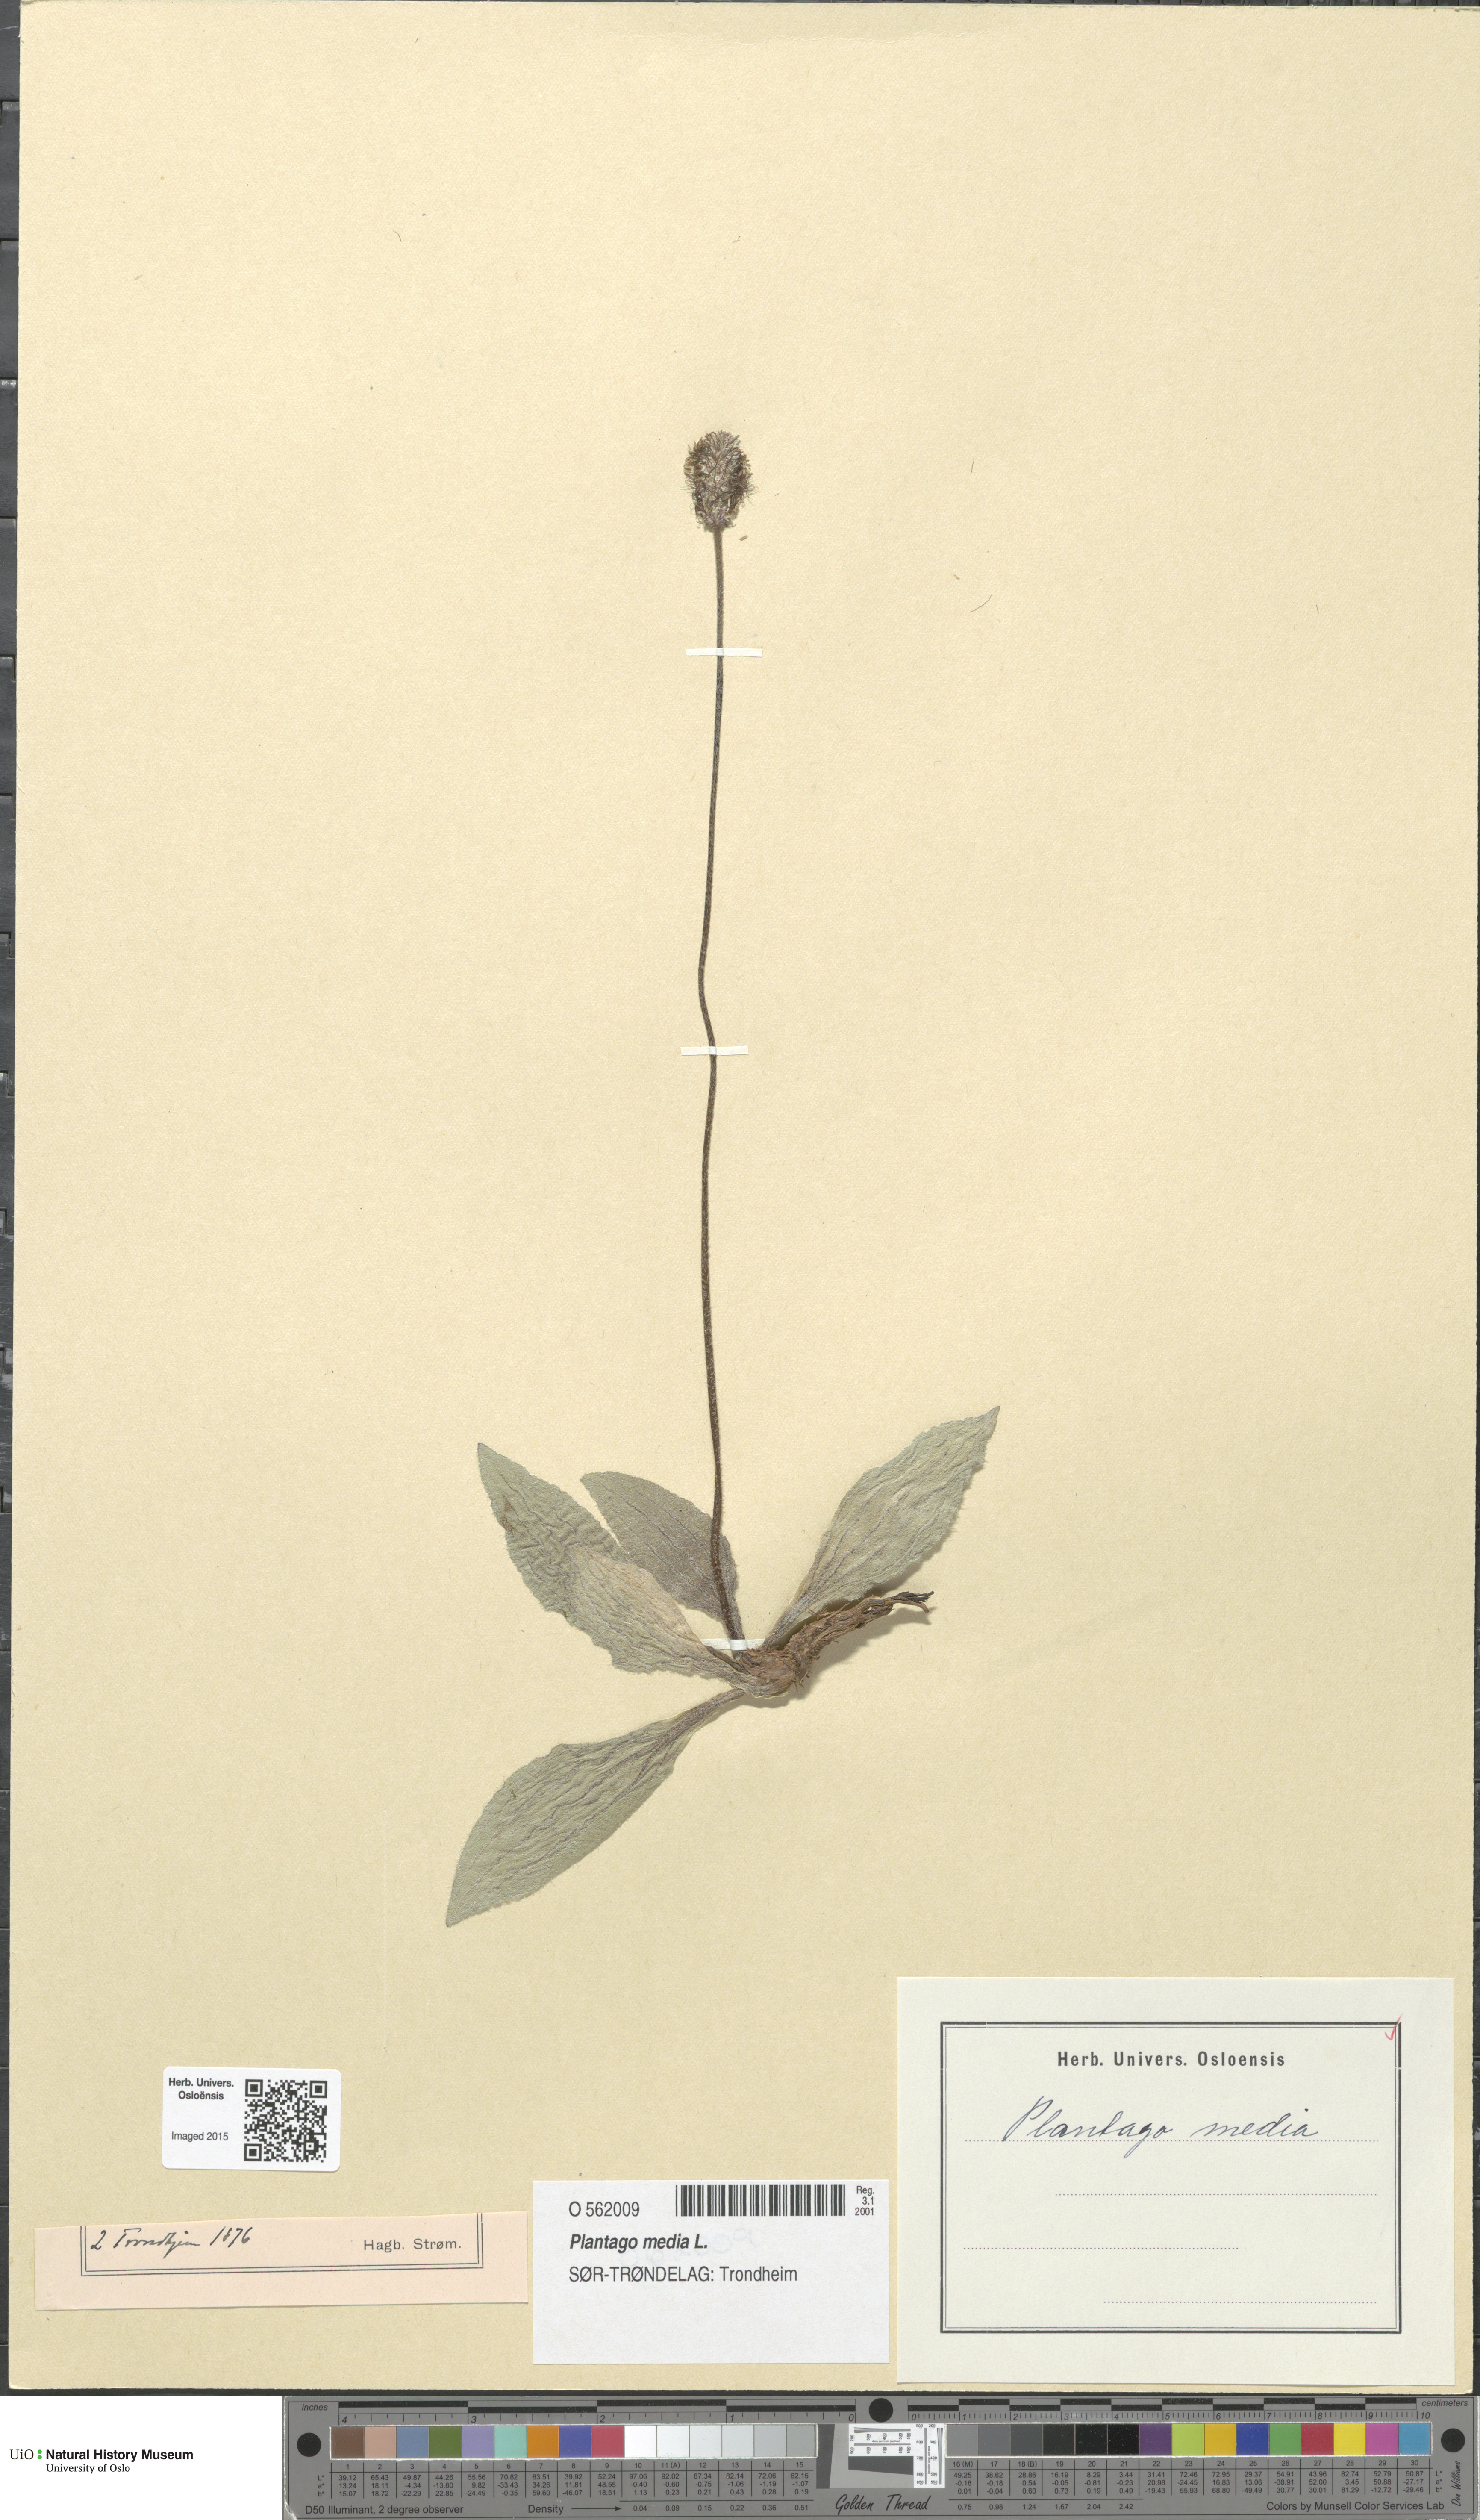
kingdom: Plantae
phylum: Tracheophyta
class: Magnoliopsida
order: Lamiales
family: Plantaginaceae
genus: Plantago
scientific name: Plantago media
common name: Hoary plantain
